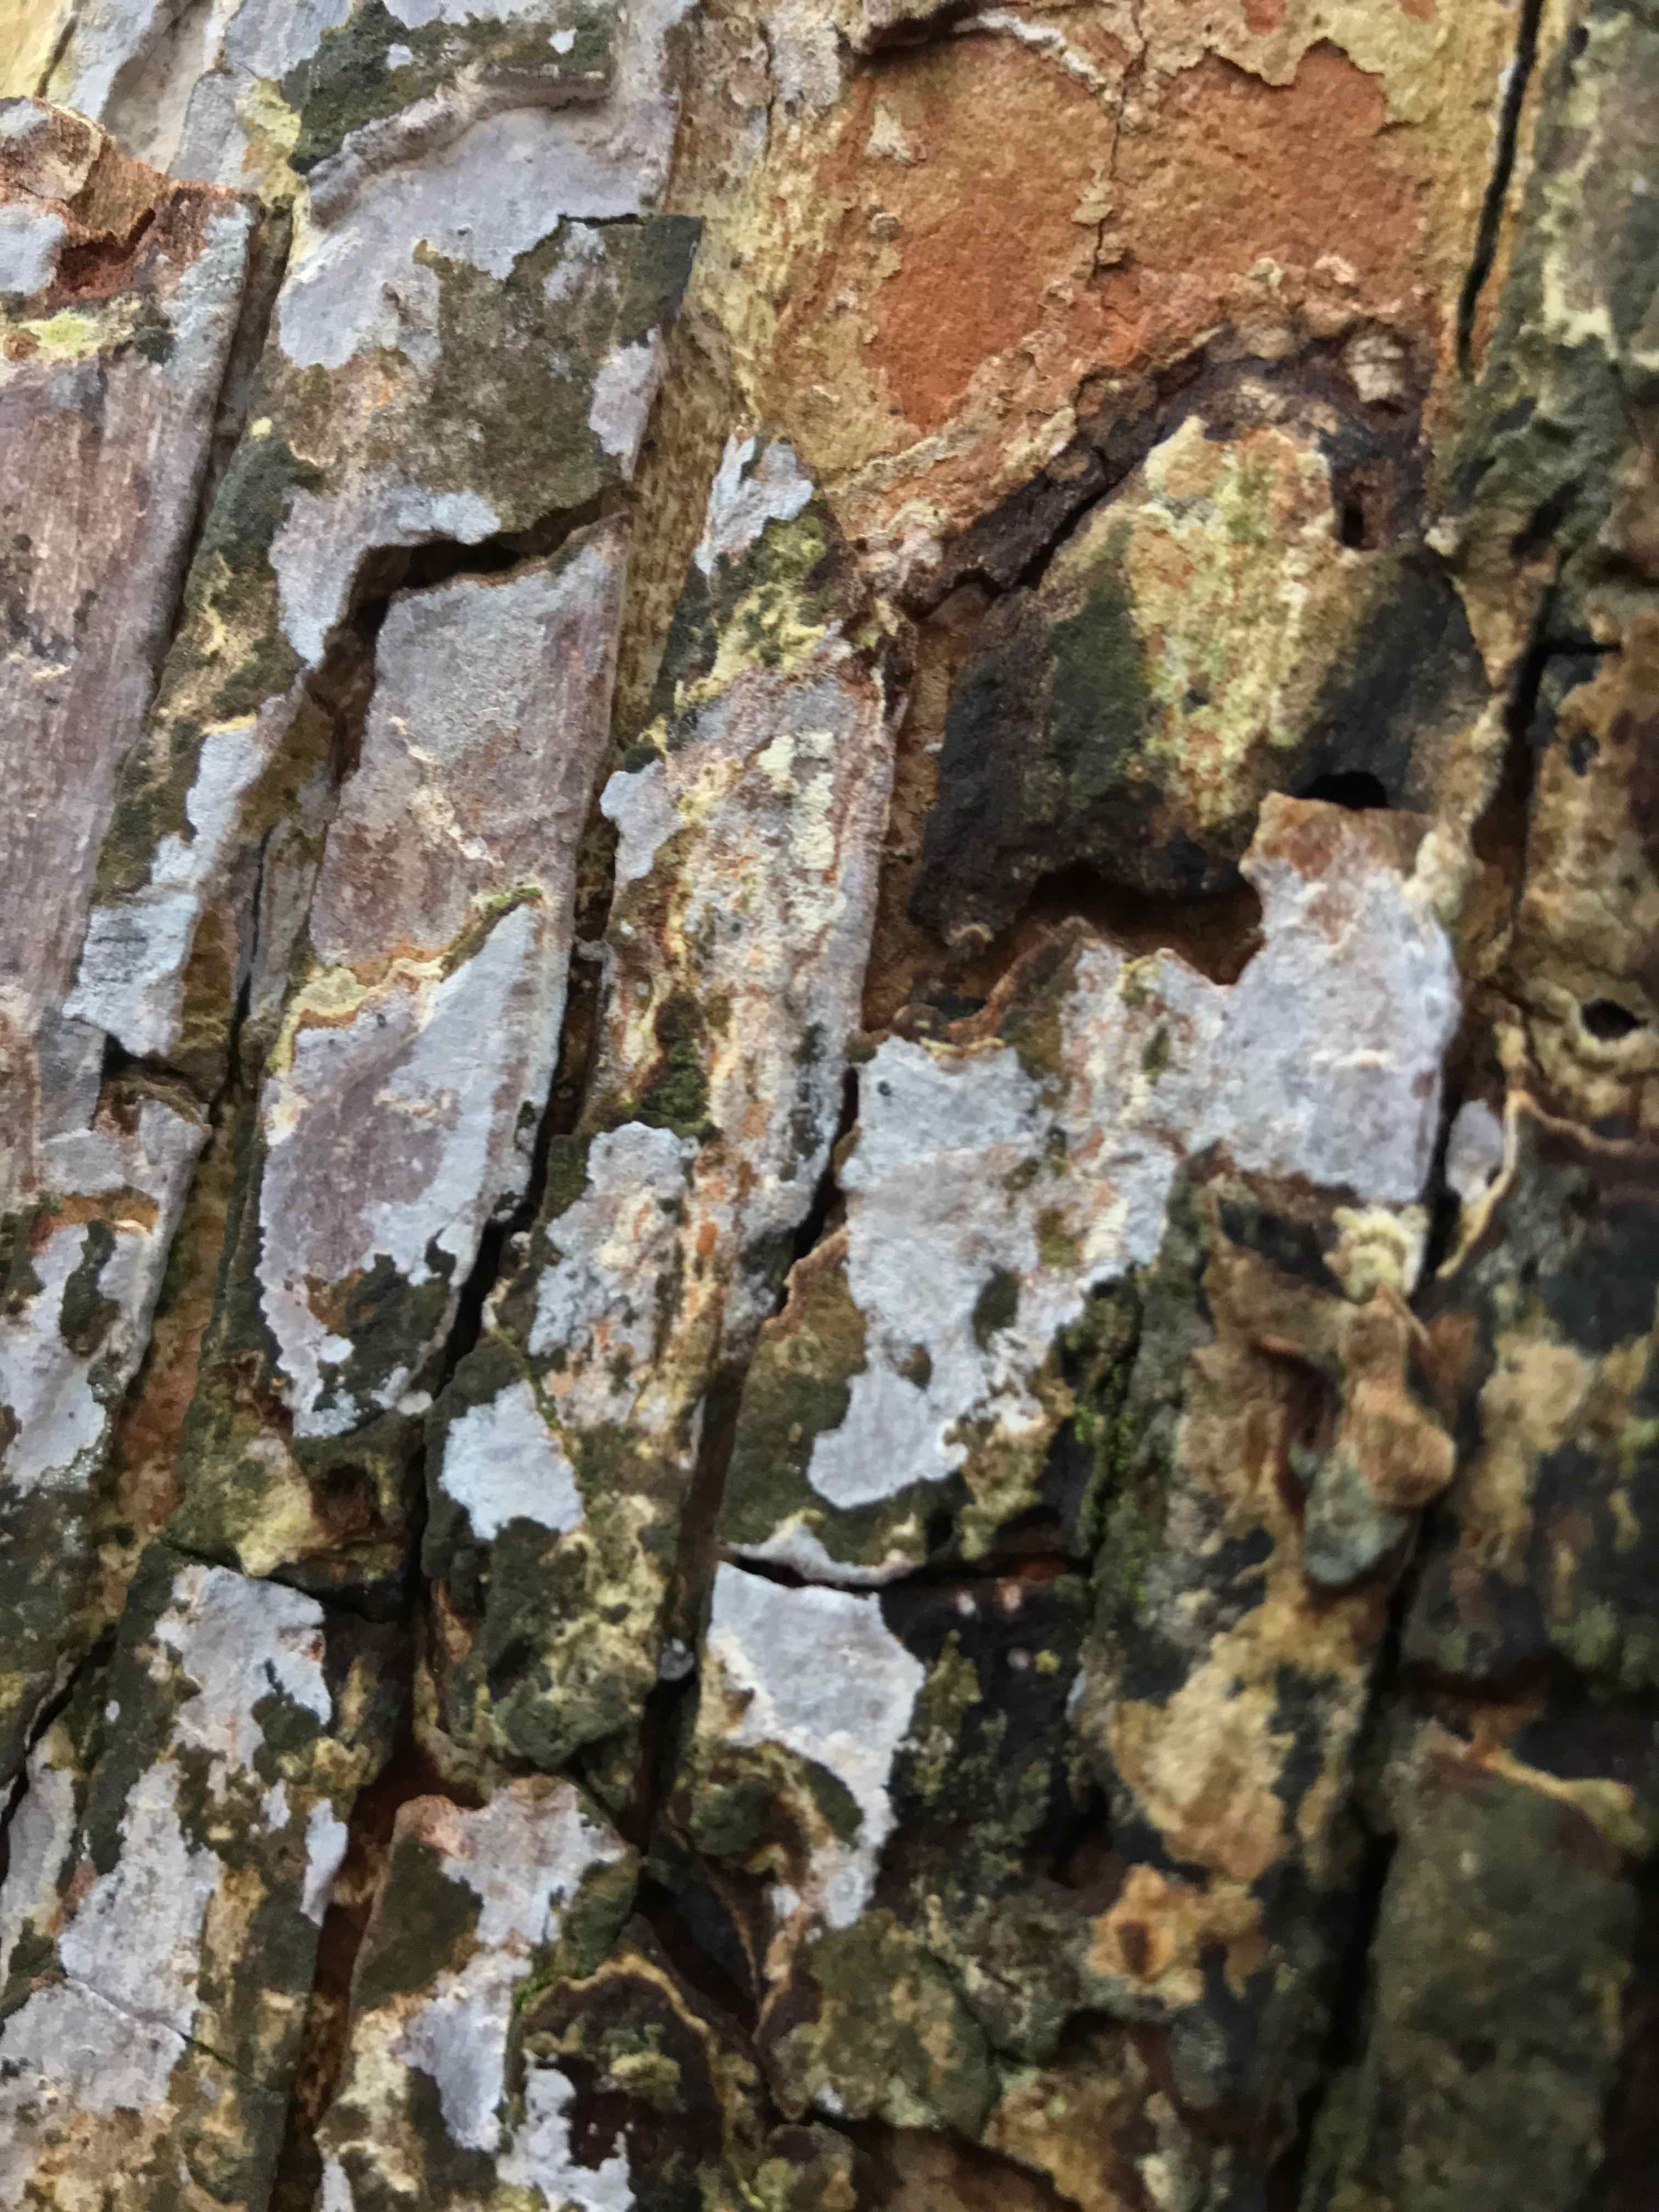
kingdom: Fungi
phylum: Basidiomycota
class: Agaricomycetes
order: Agaricales
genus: Dendrothele
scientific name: Dendrothele acerina
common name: navr-kalkplet
